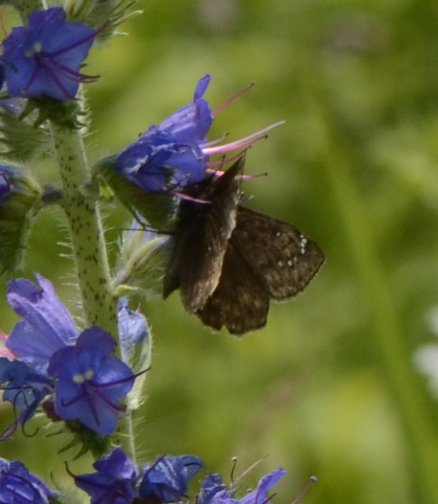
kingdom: Animalia
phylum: Arthropoda
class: Insecta
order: Lepidoptera
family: Hesperiidae
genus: Gesta
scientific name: Gesta
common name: Juvenal's Duskywing
